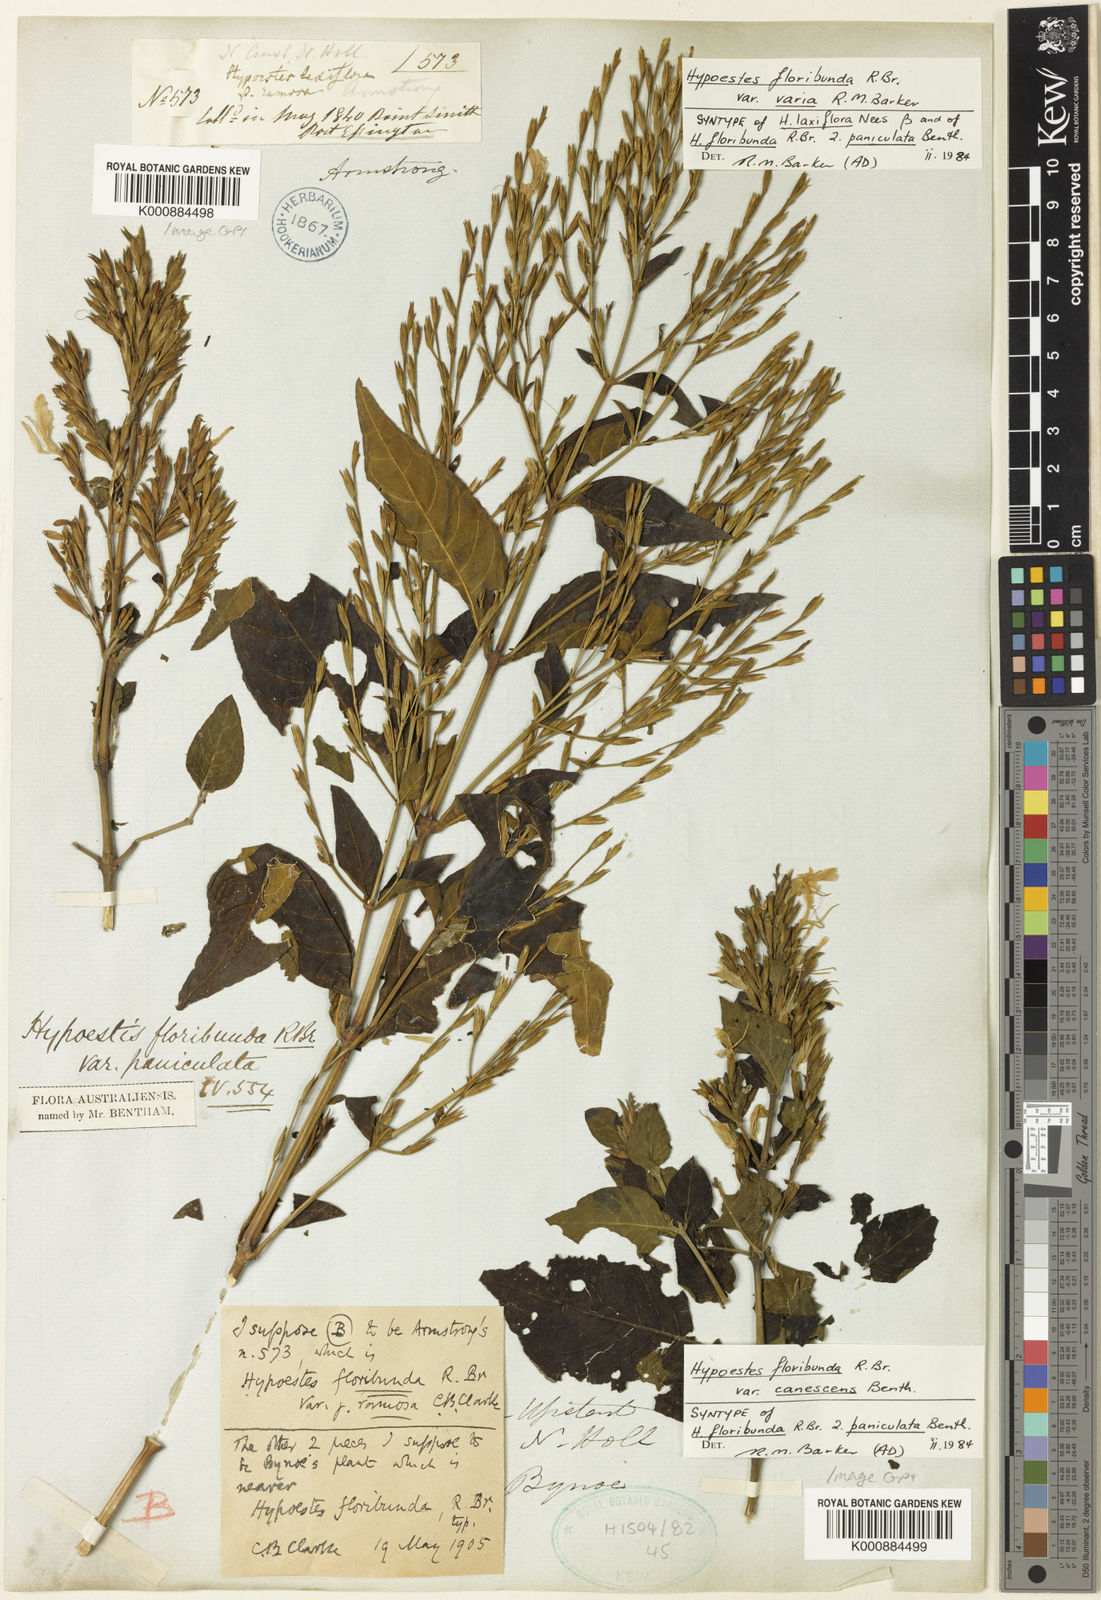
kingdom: Plantae
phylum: Tracheophyta
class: Magnoliopsida
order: Lamiales
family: Acanthaceae
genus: Hypoestes
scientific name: Hypoestes floribunda
